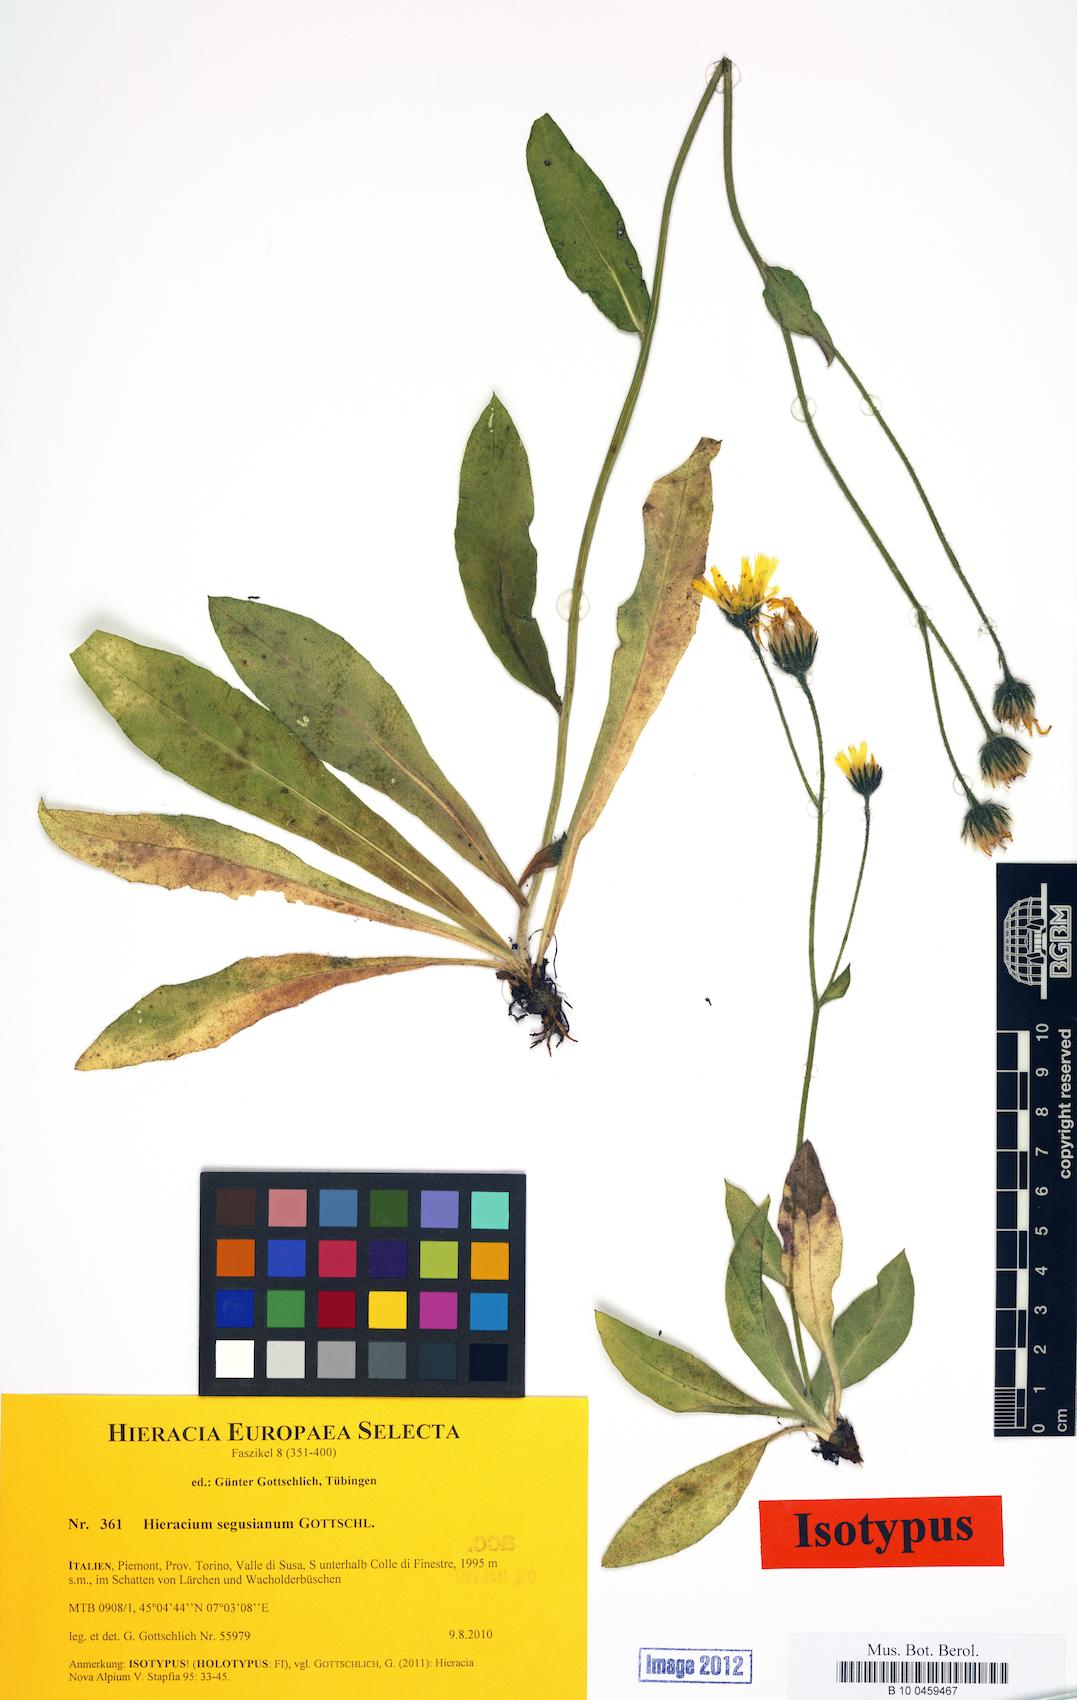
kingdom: Plantae
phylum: Tracheophyta
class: Magnoliopsida
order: Asterales
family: Asteraceae
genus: Hieracium
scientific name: Hieracium segusianum
